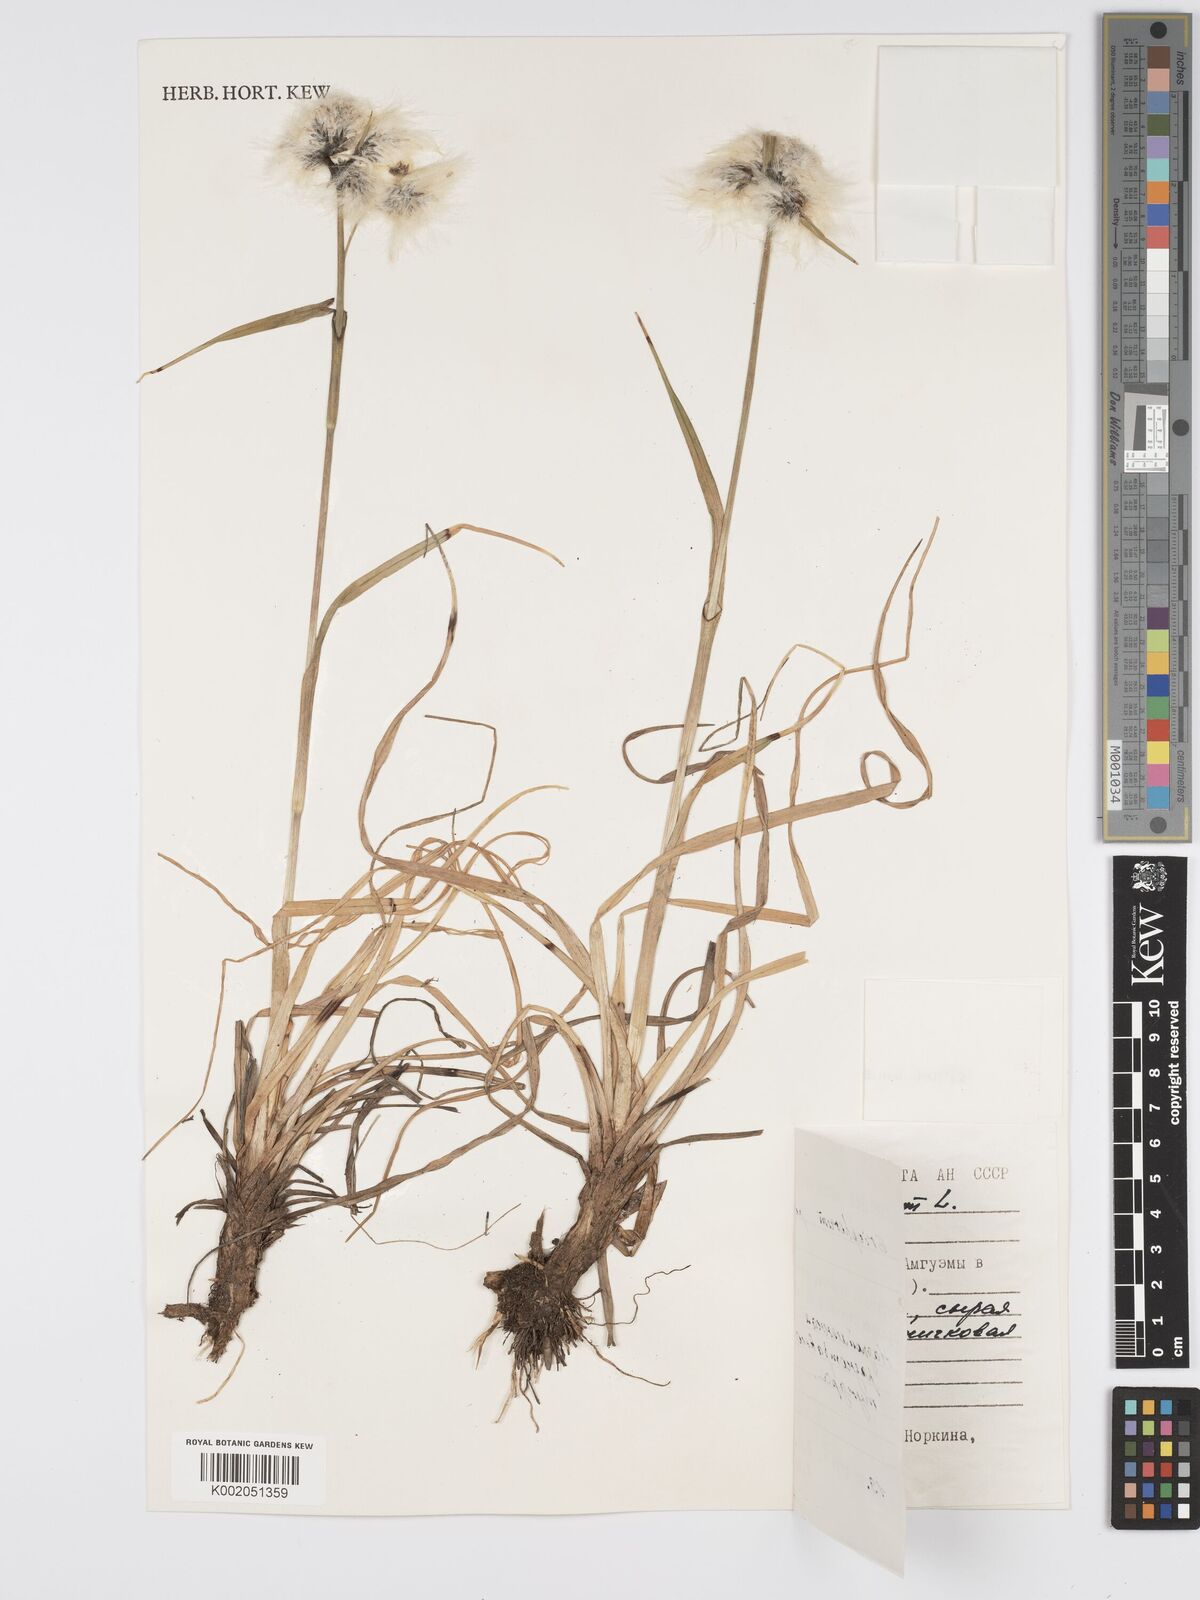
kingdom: Plantae
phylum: Tracheophyta
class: Liliopsida
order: Poales
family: Cyperaceae
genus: Eriophorum
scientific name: Eriophorum angustifolium
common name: Common cottongrass
